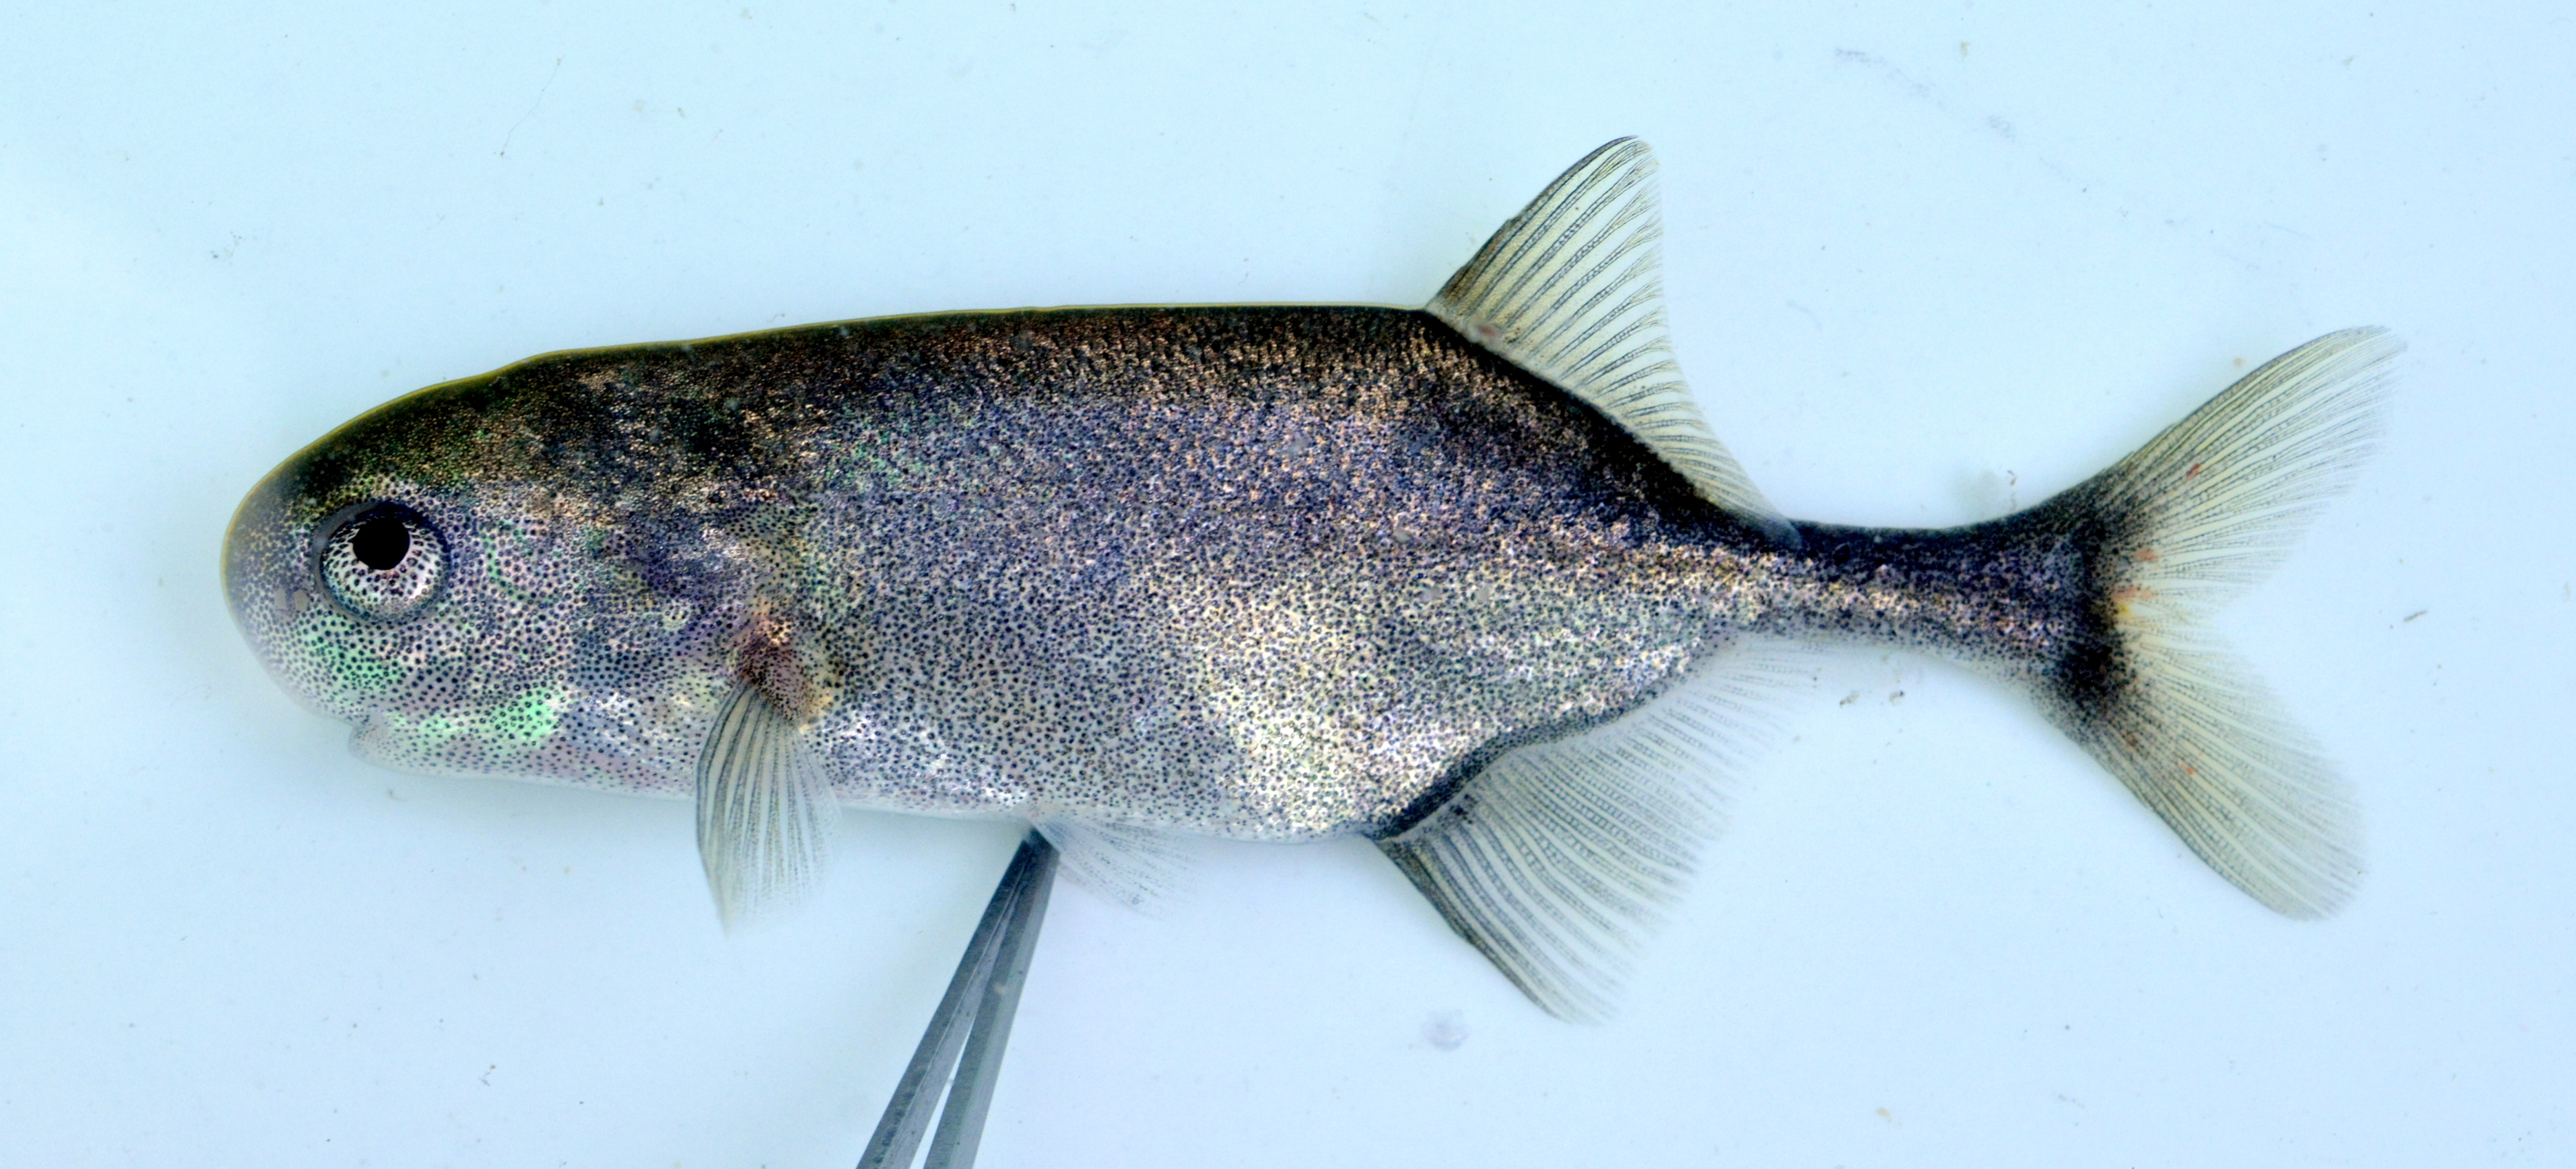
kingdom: Animalia
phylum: Chordata
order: Osteoglossiformes
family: Mormyridae
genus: Petrocephalus
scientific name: Petrocephalus okavangensis
